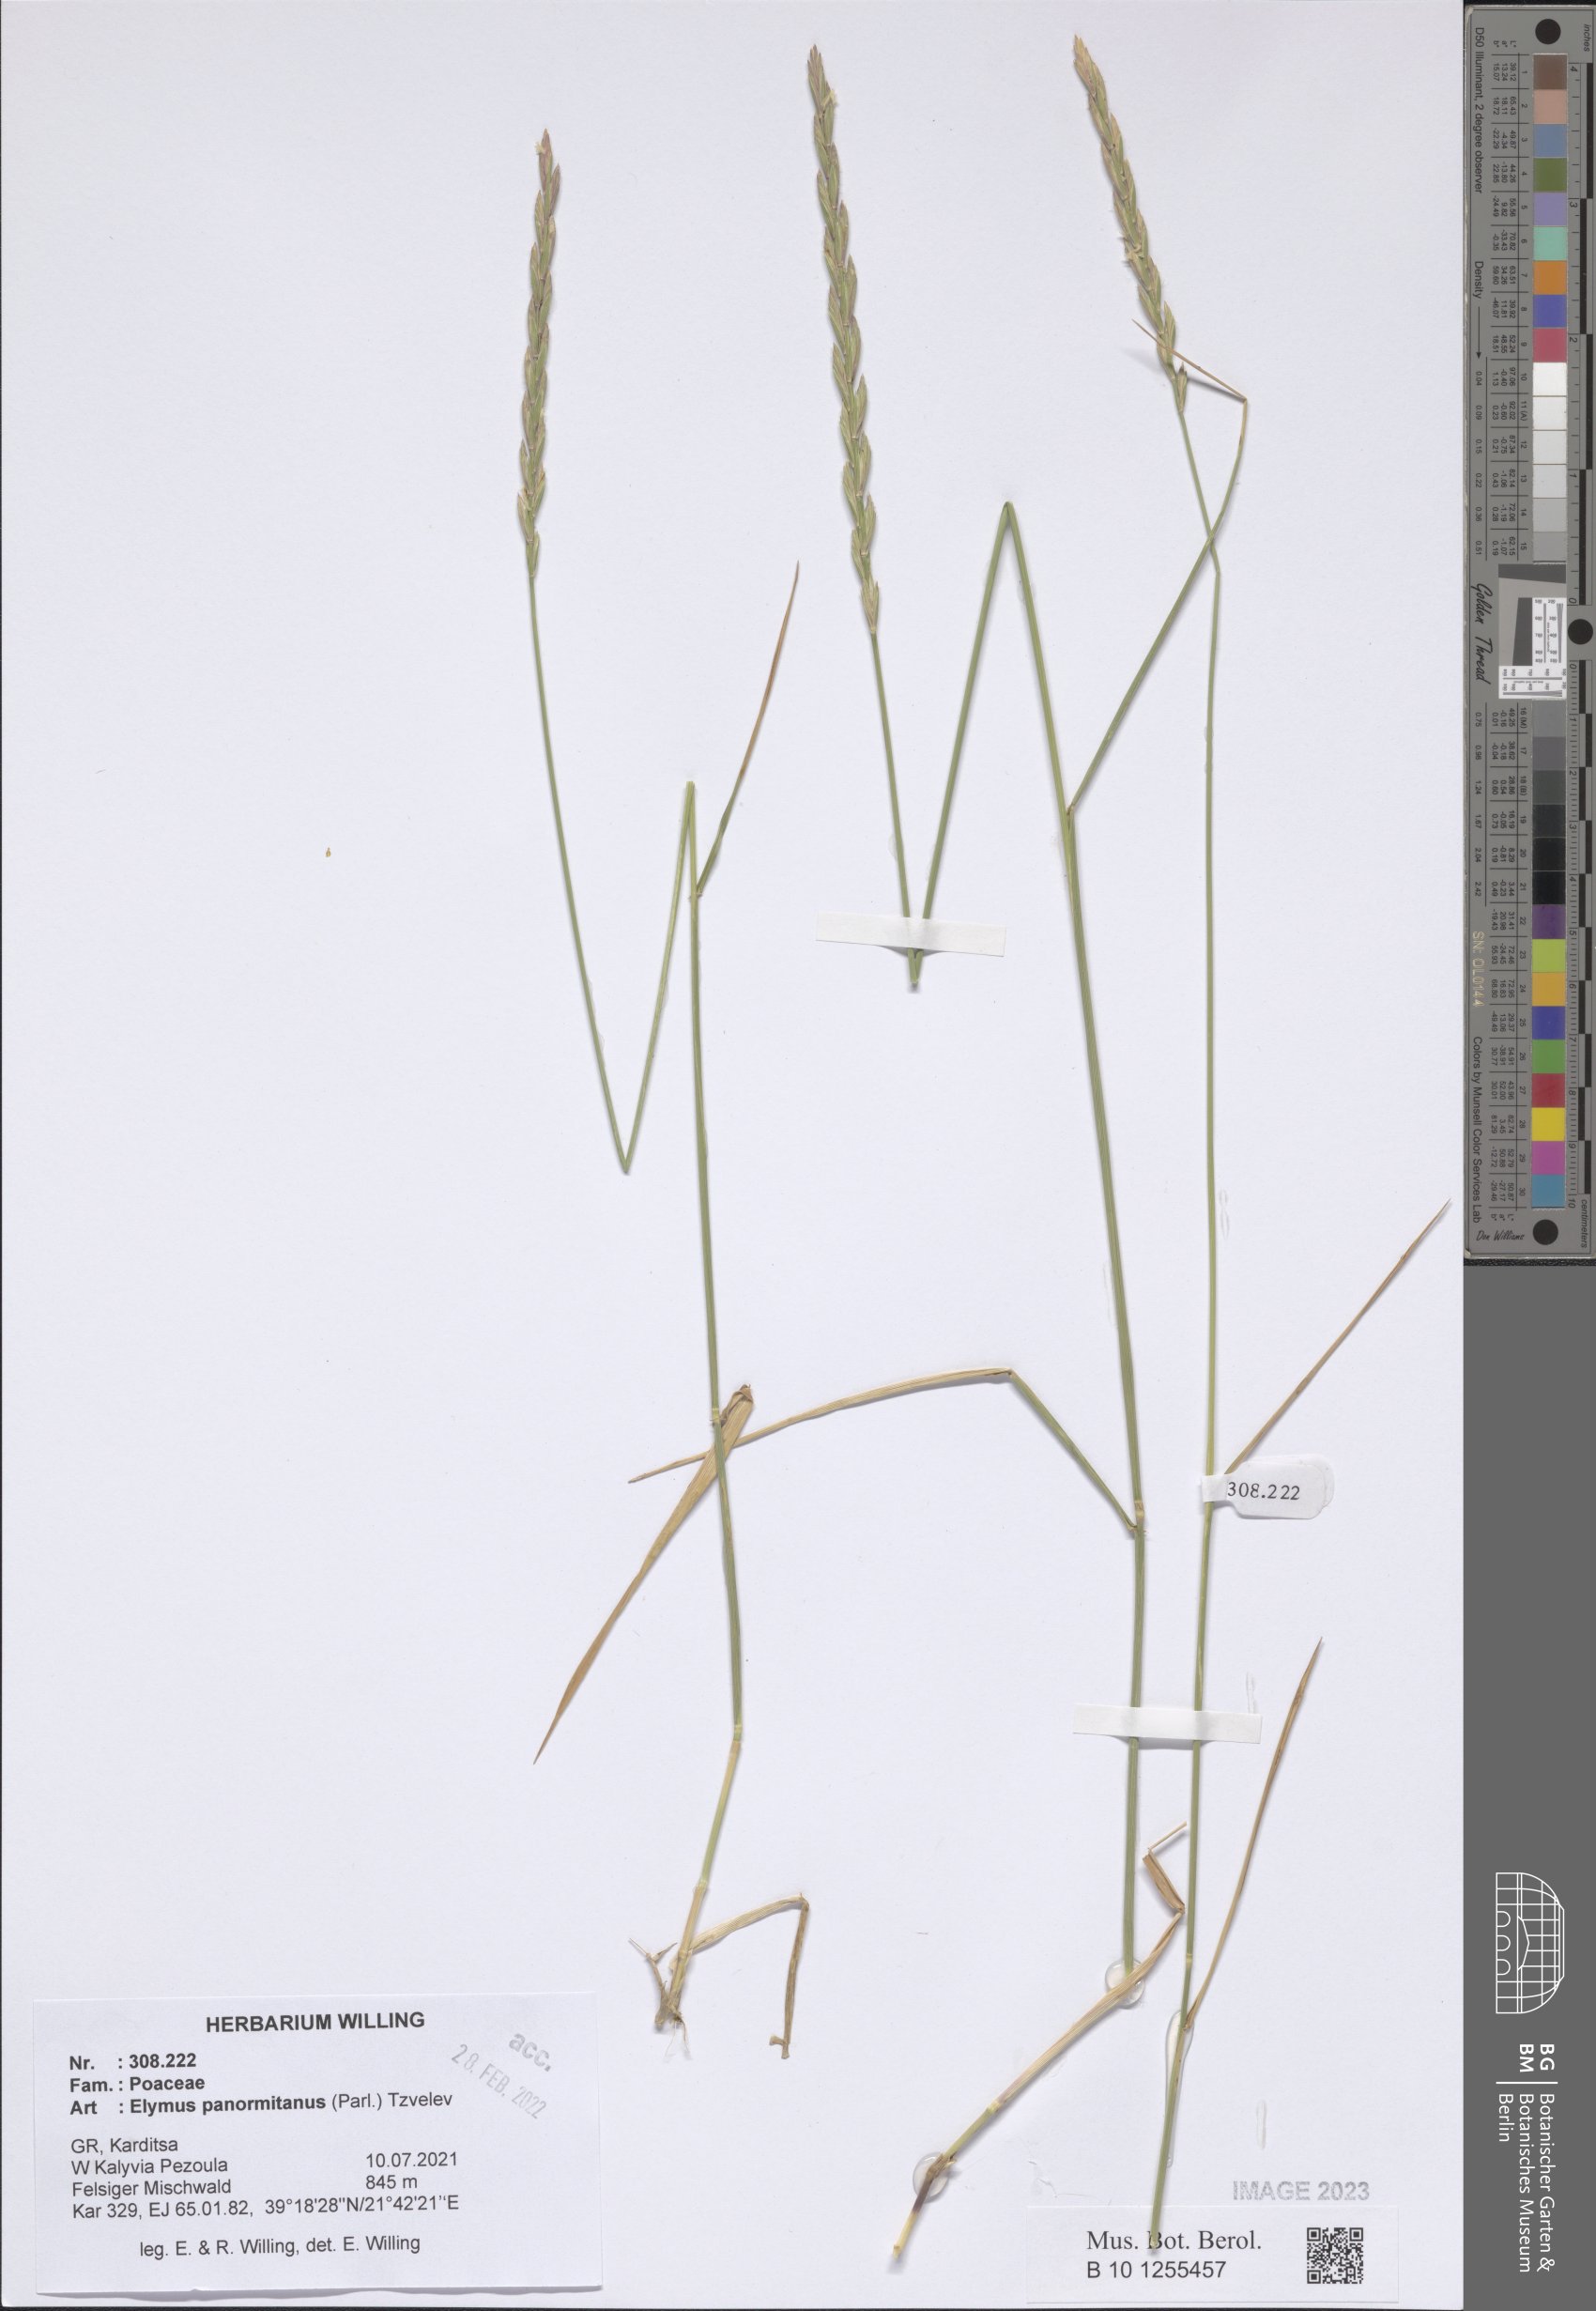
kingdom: Plantae
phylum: Tracheophyta
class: Liliopsida
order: Poales
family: Poaceae
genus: Elymus
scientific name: Elymus panormitanus
